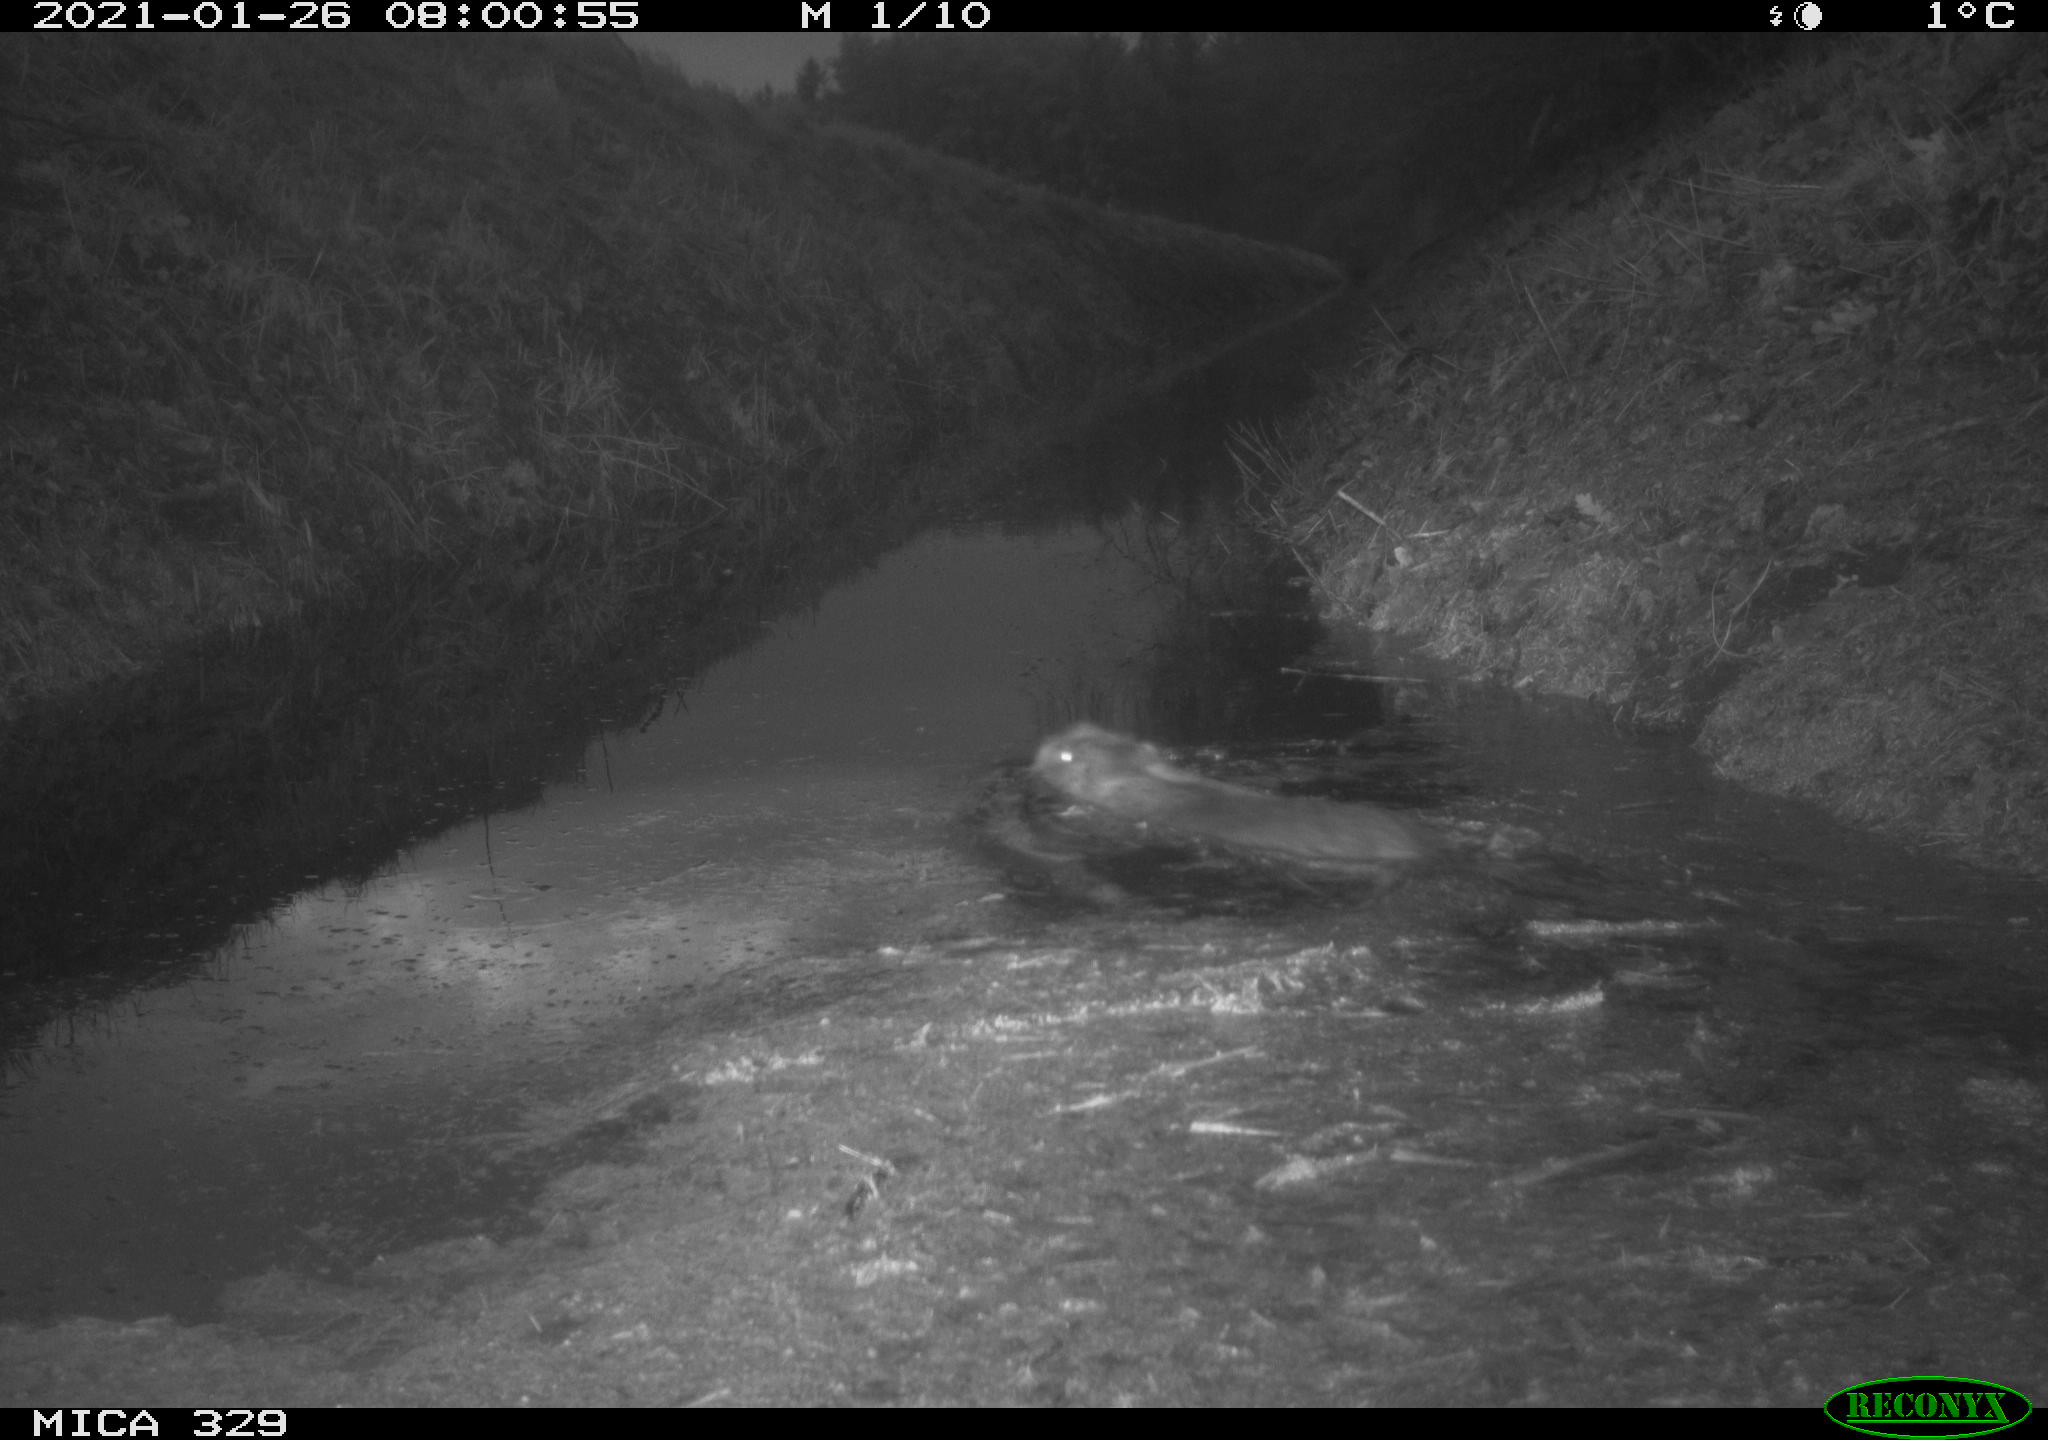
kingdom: Animalia
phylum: Chordata
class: Mammalia
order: Rodentia
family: Myocastoridae
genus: Myocastor
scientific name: Myocastor coypus
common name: Coypu
